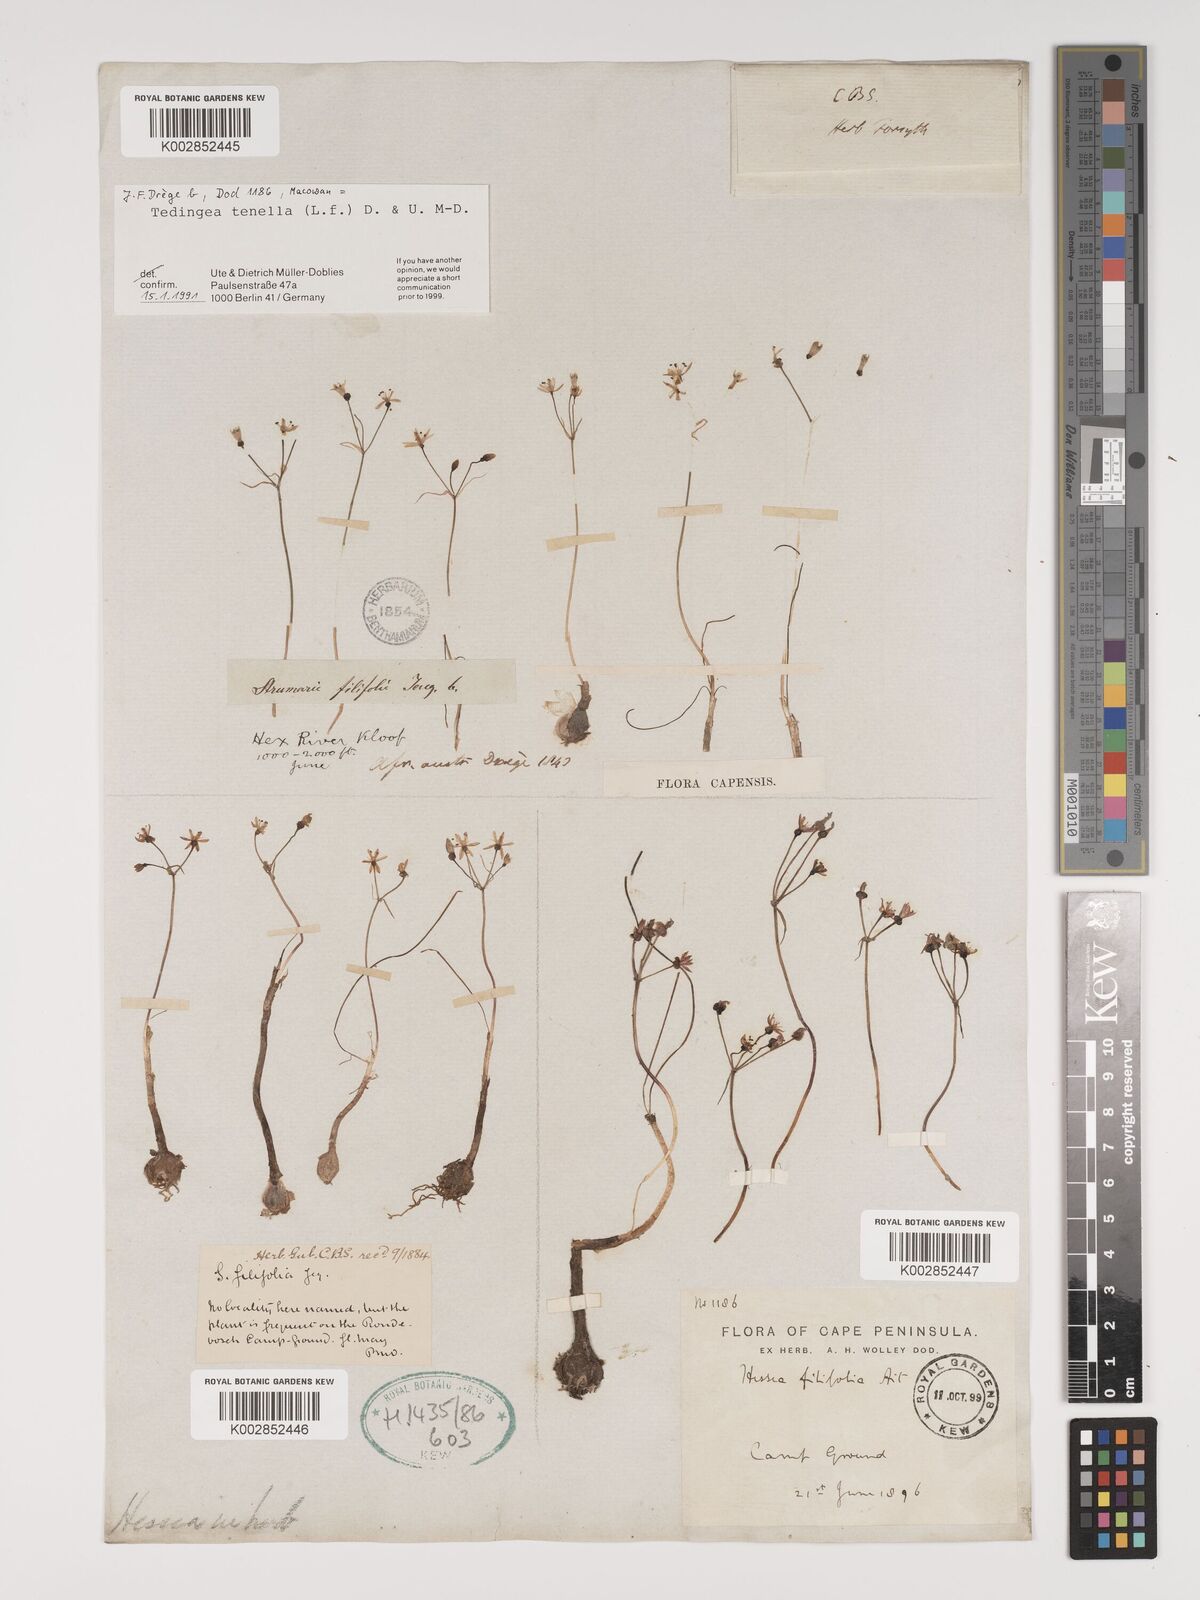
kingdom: Plantae
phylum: Tracheophyta
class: Liliopsida
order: Asparagales
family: Amaryllidaceae
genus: Strumaria
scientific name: Strumaria tenella
